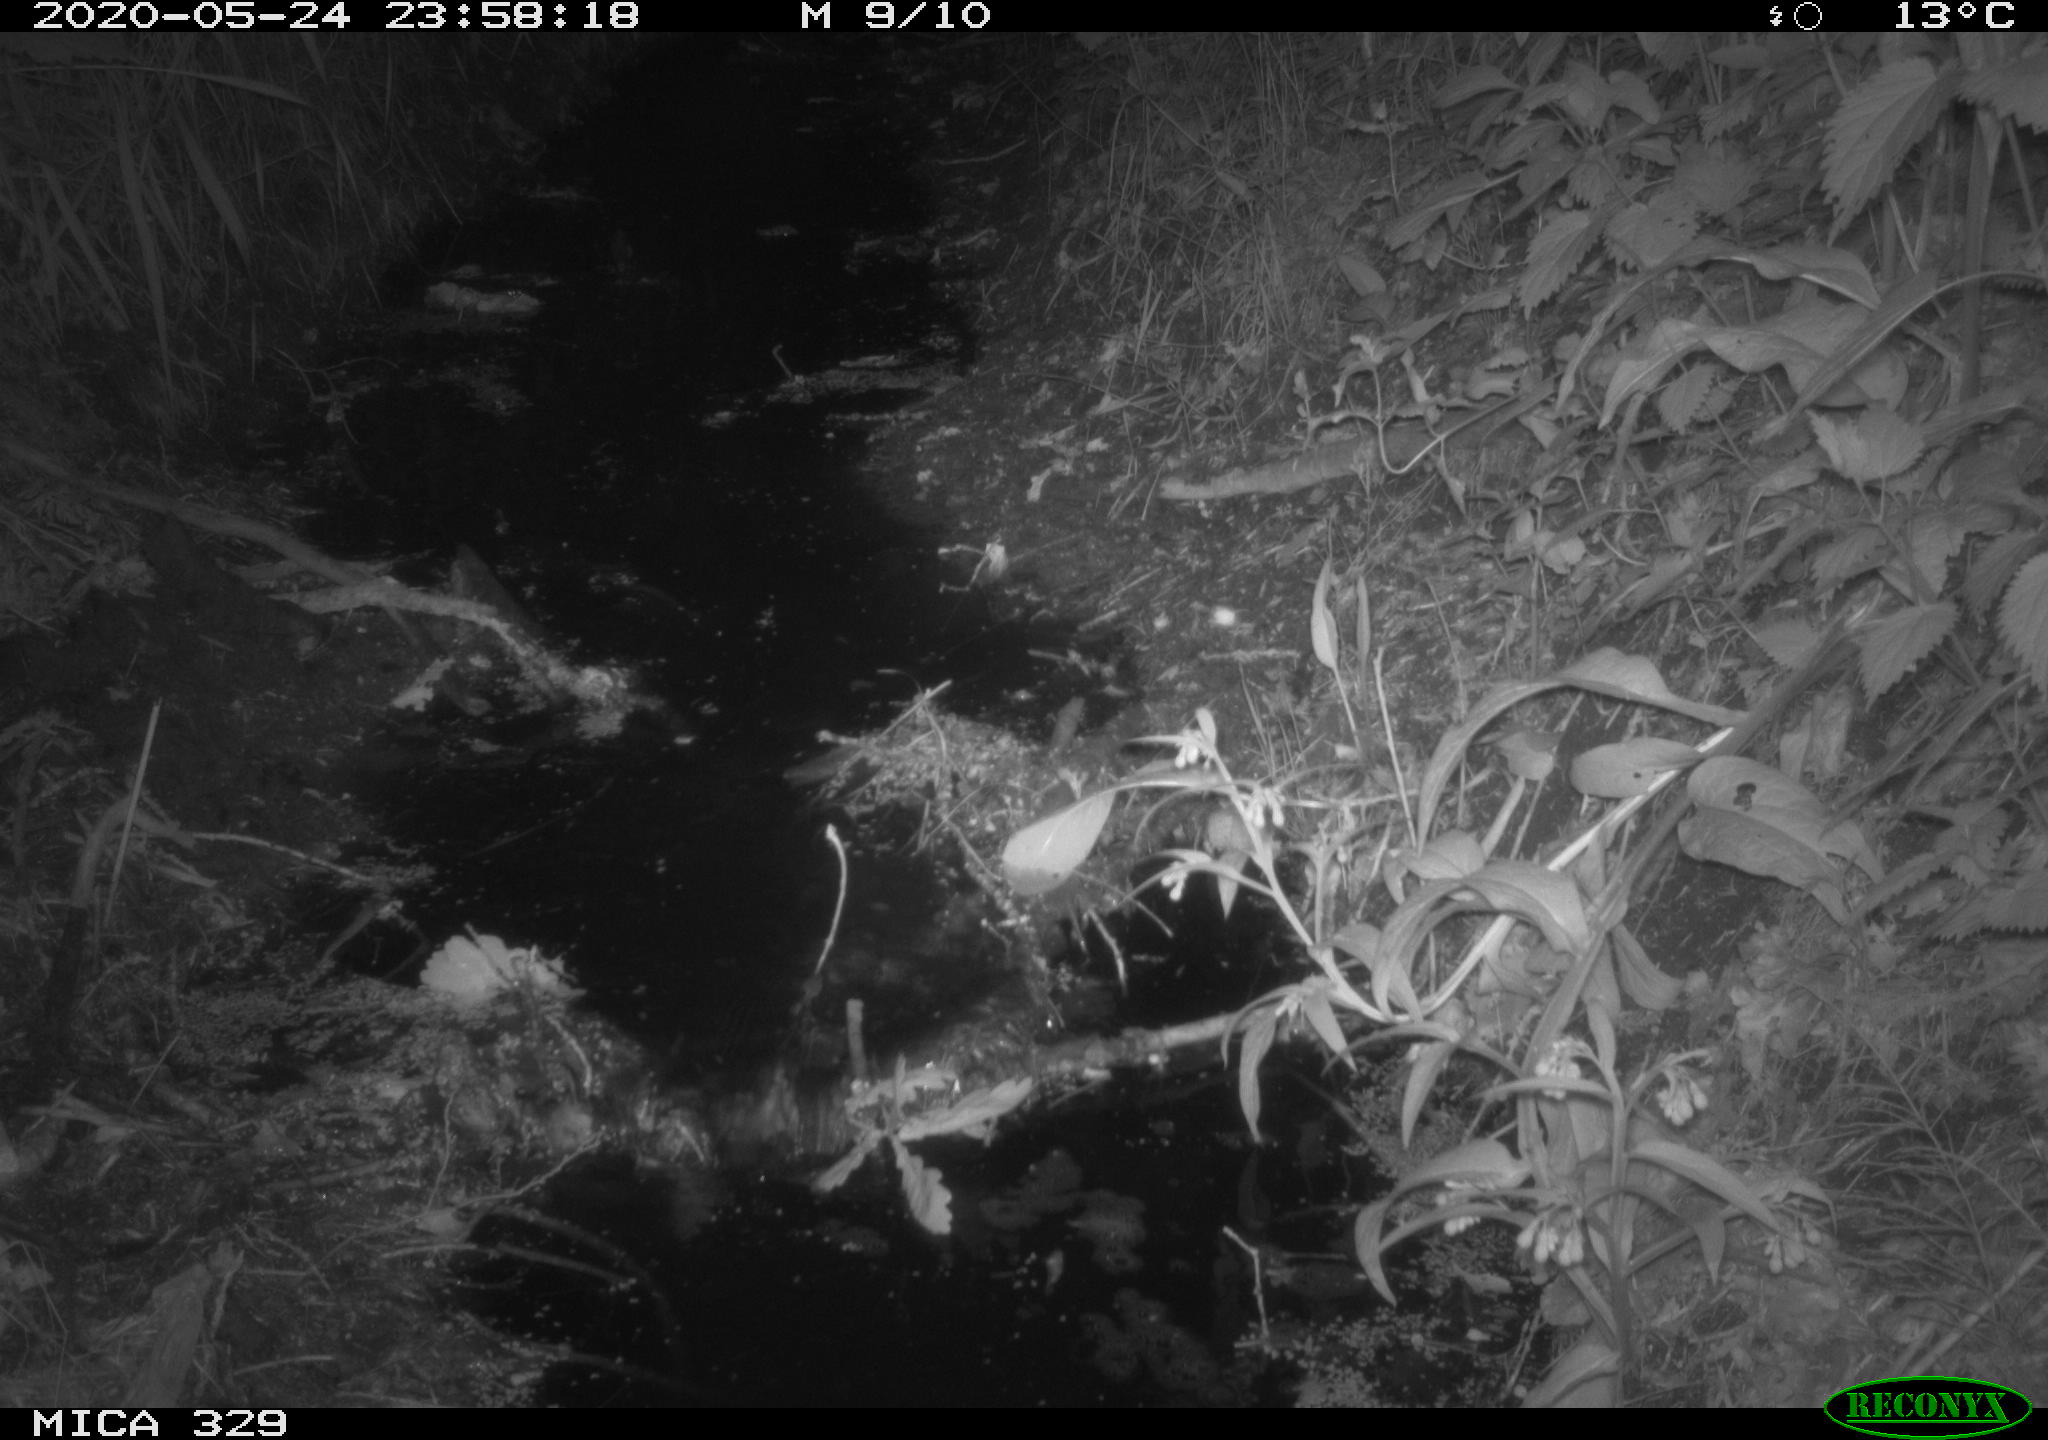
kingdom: Animalia
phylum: Chordata
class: Mammalia
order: Rodentia
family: Cricetidae
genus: Ondatra
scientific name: Ondatra zibethicus
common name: Muskrat
